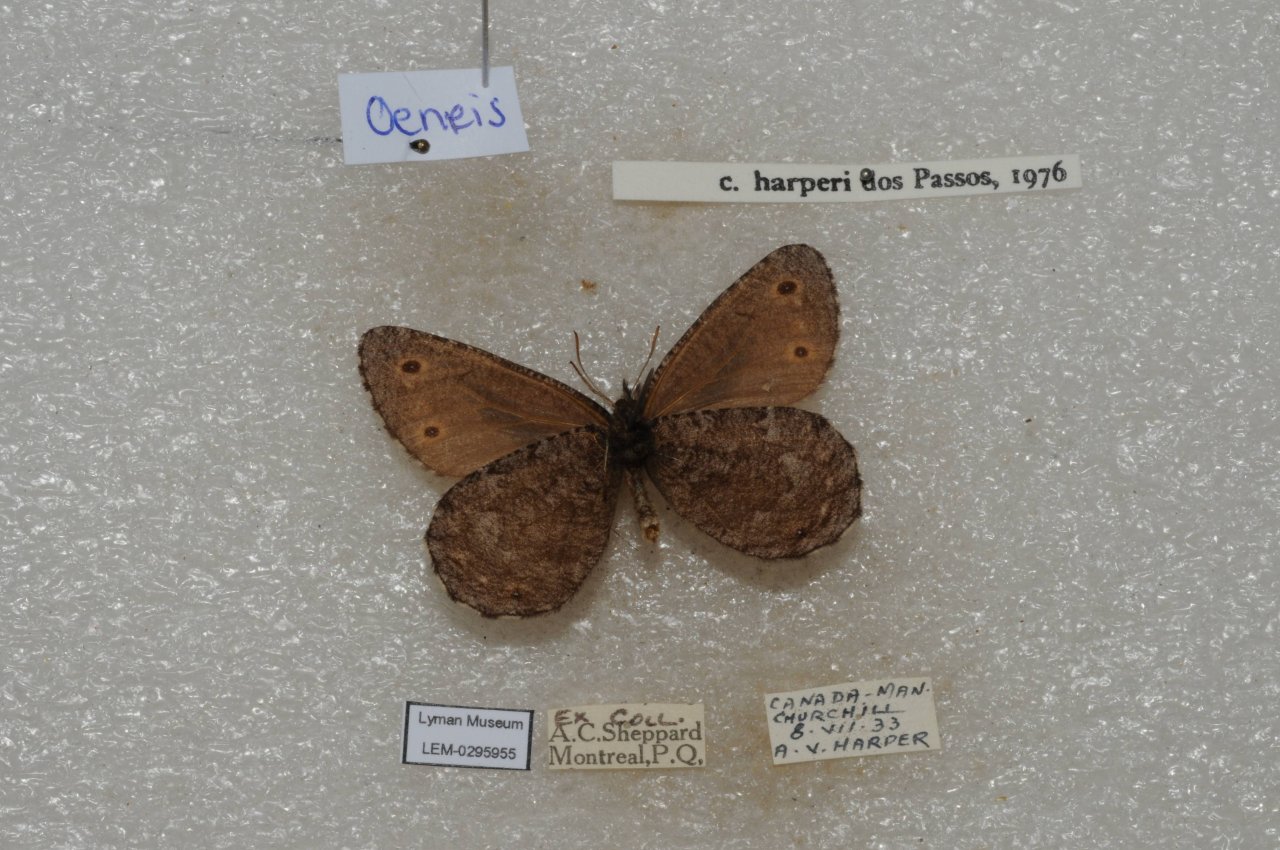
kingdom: Animalia
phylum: Arthropoda
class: Insecta
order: Lepidoptera
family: Nymphalidae
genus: Oeneis
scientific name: Oeneis jutta
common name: Jutta Arctic
